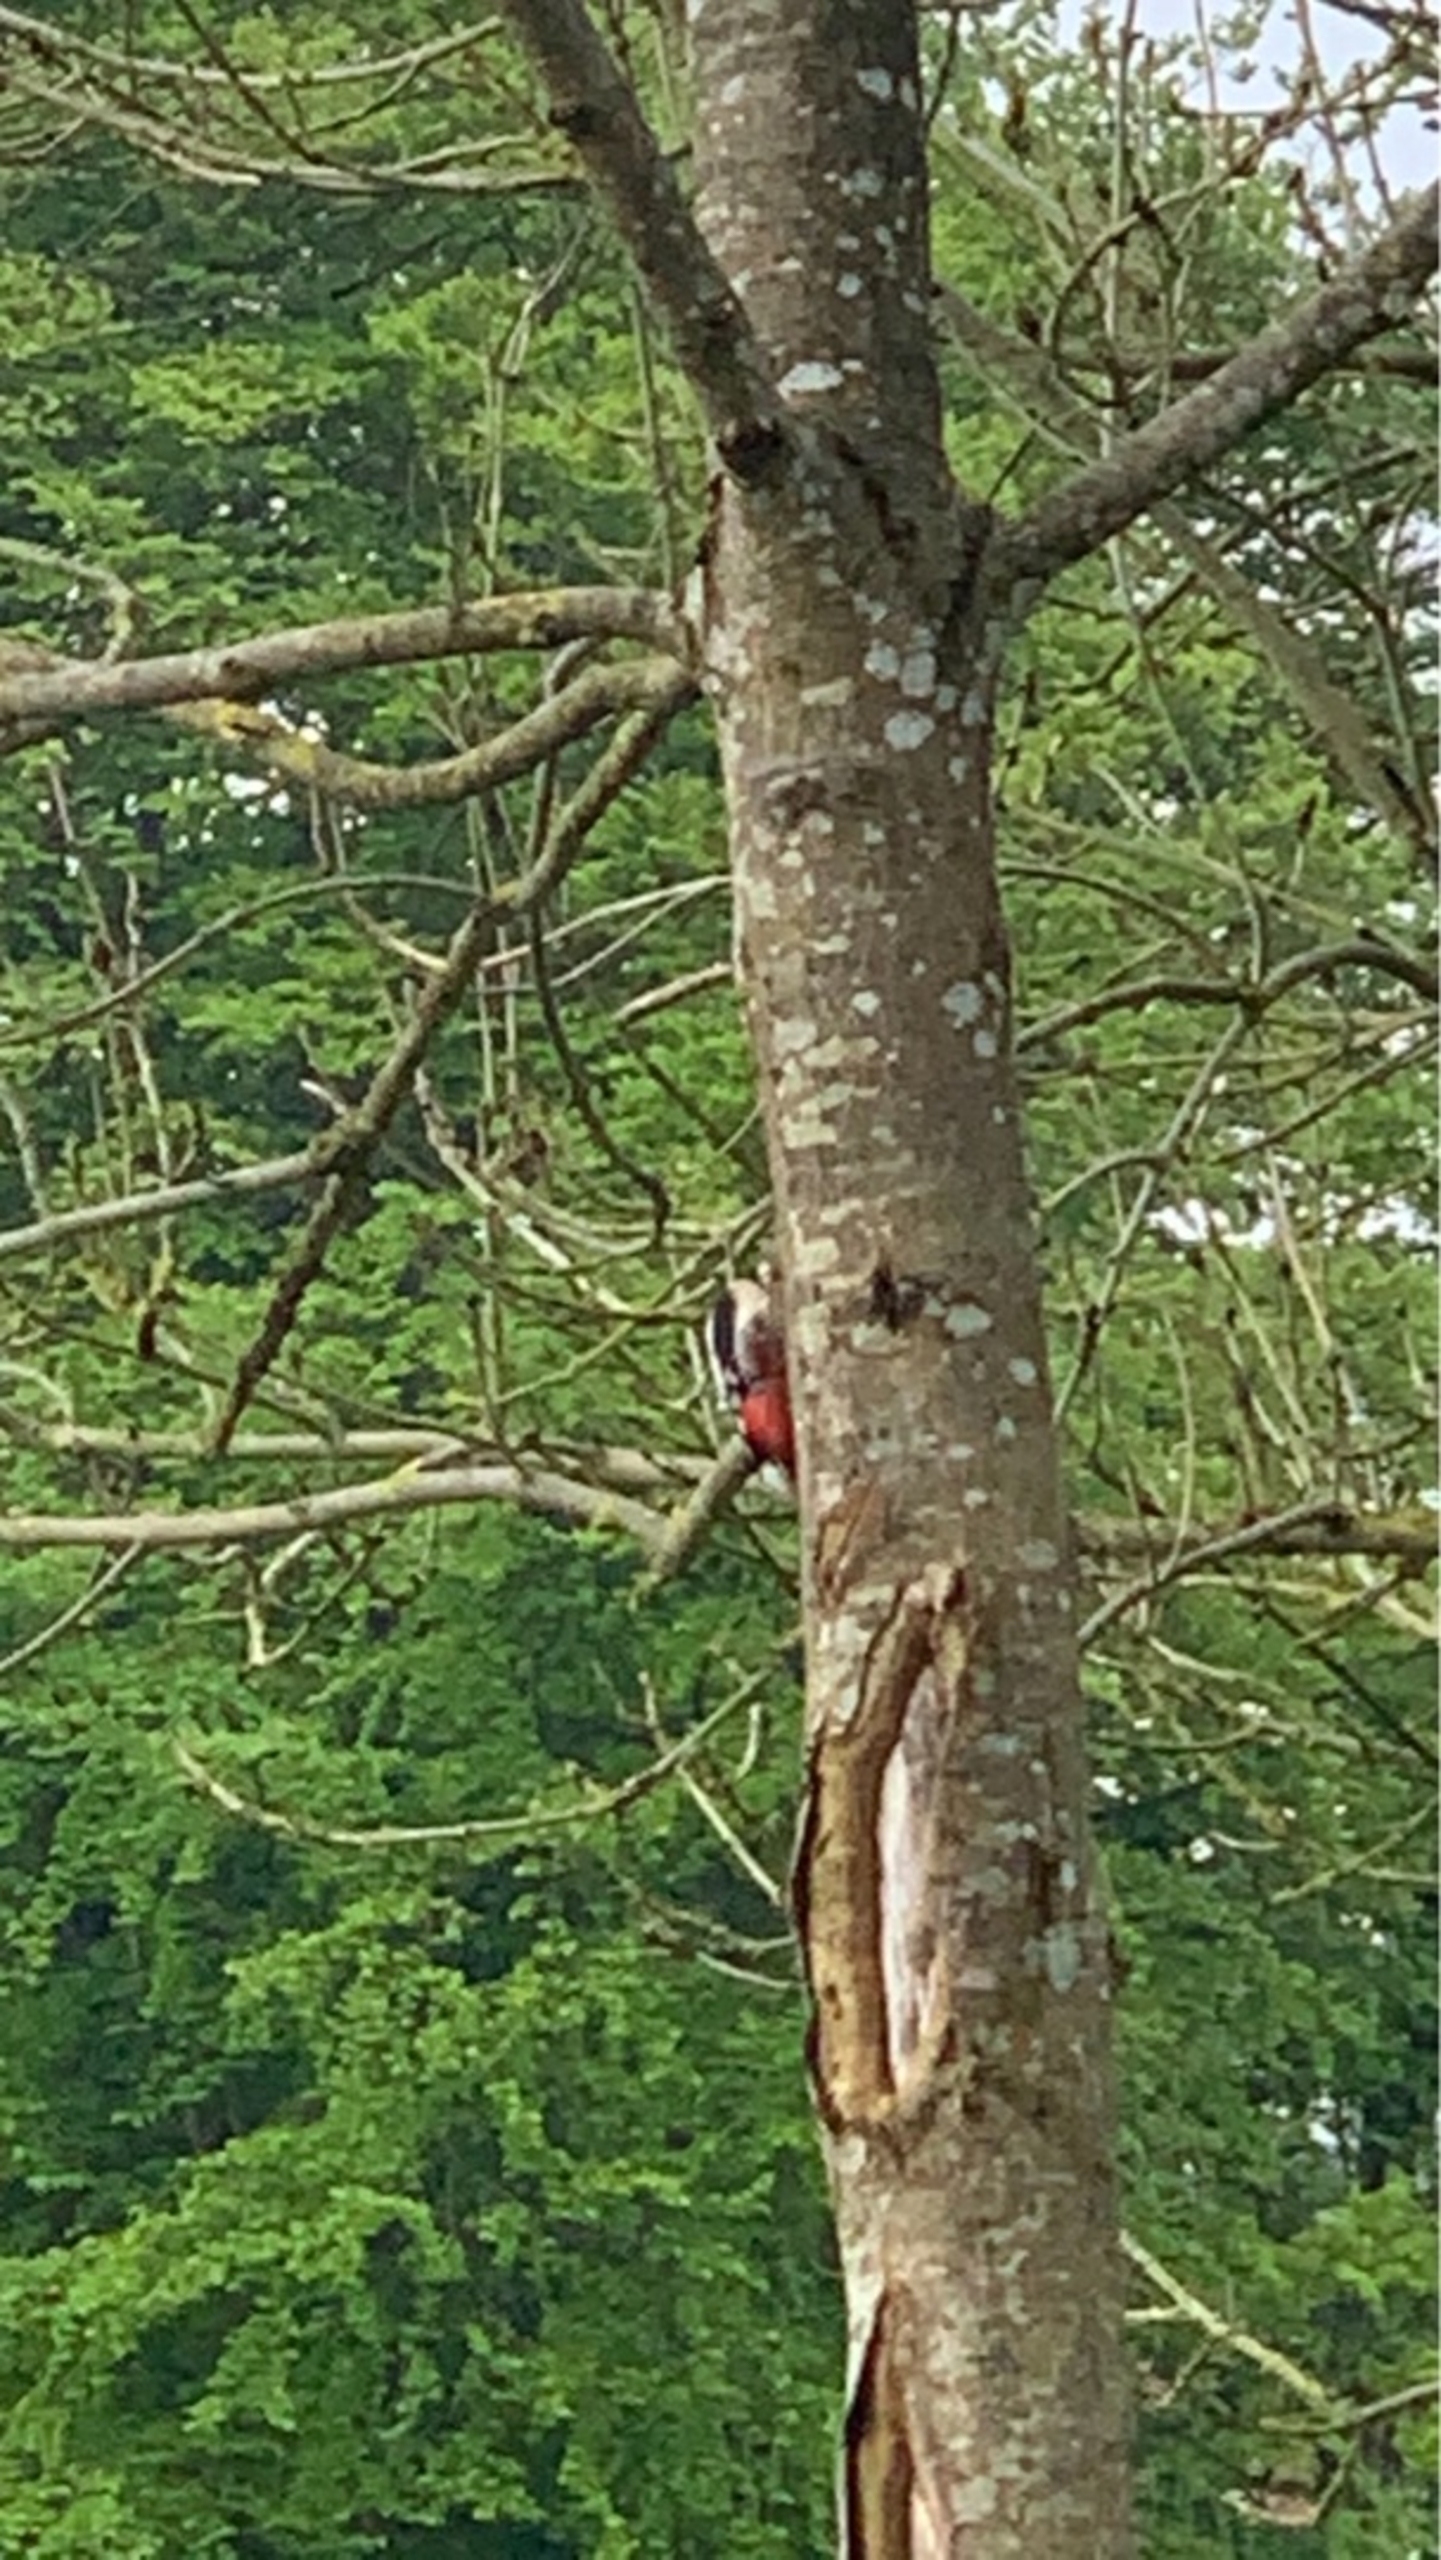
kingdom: Animalia
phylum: Chordata
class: Aves
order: Piciformes
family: Picidae
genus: Dendrocopos
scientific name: Dendrocopos major
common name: Stor flagspætte
